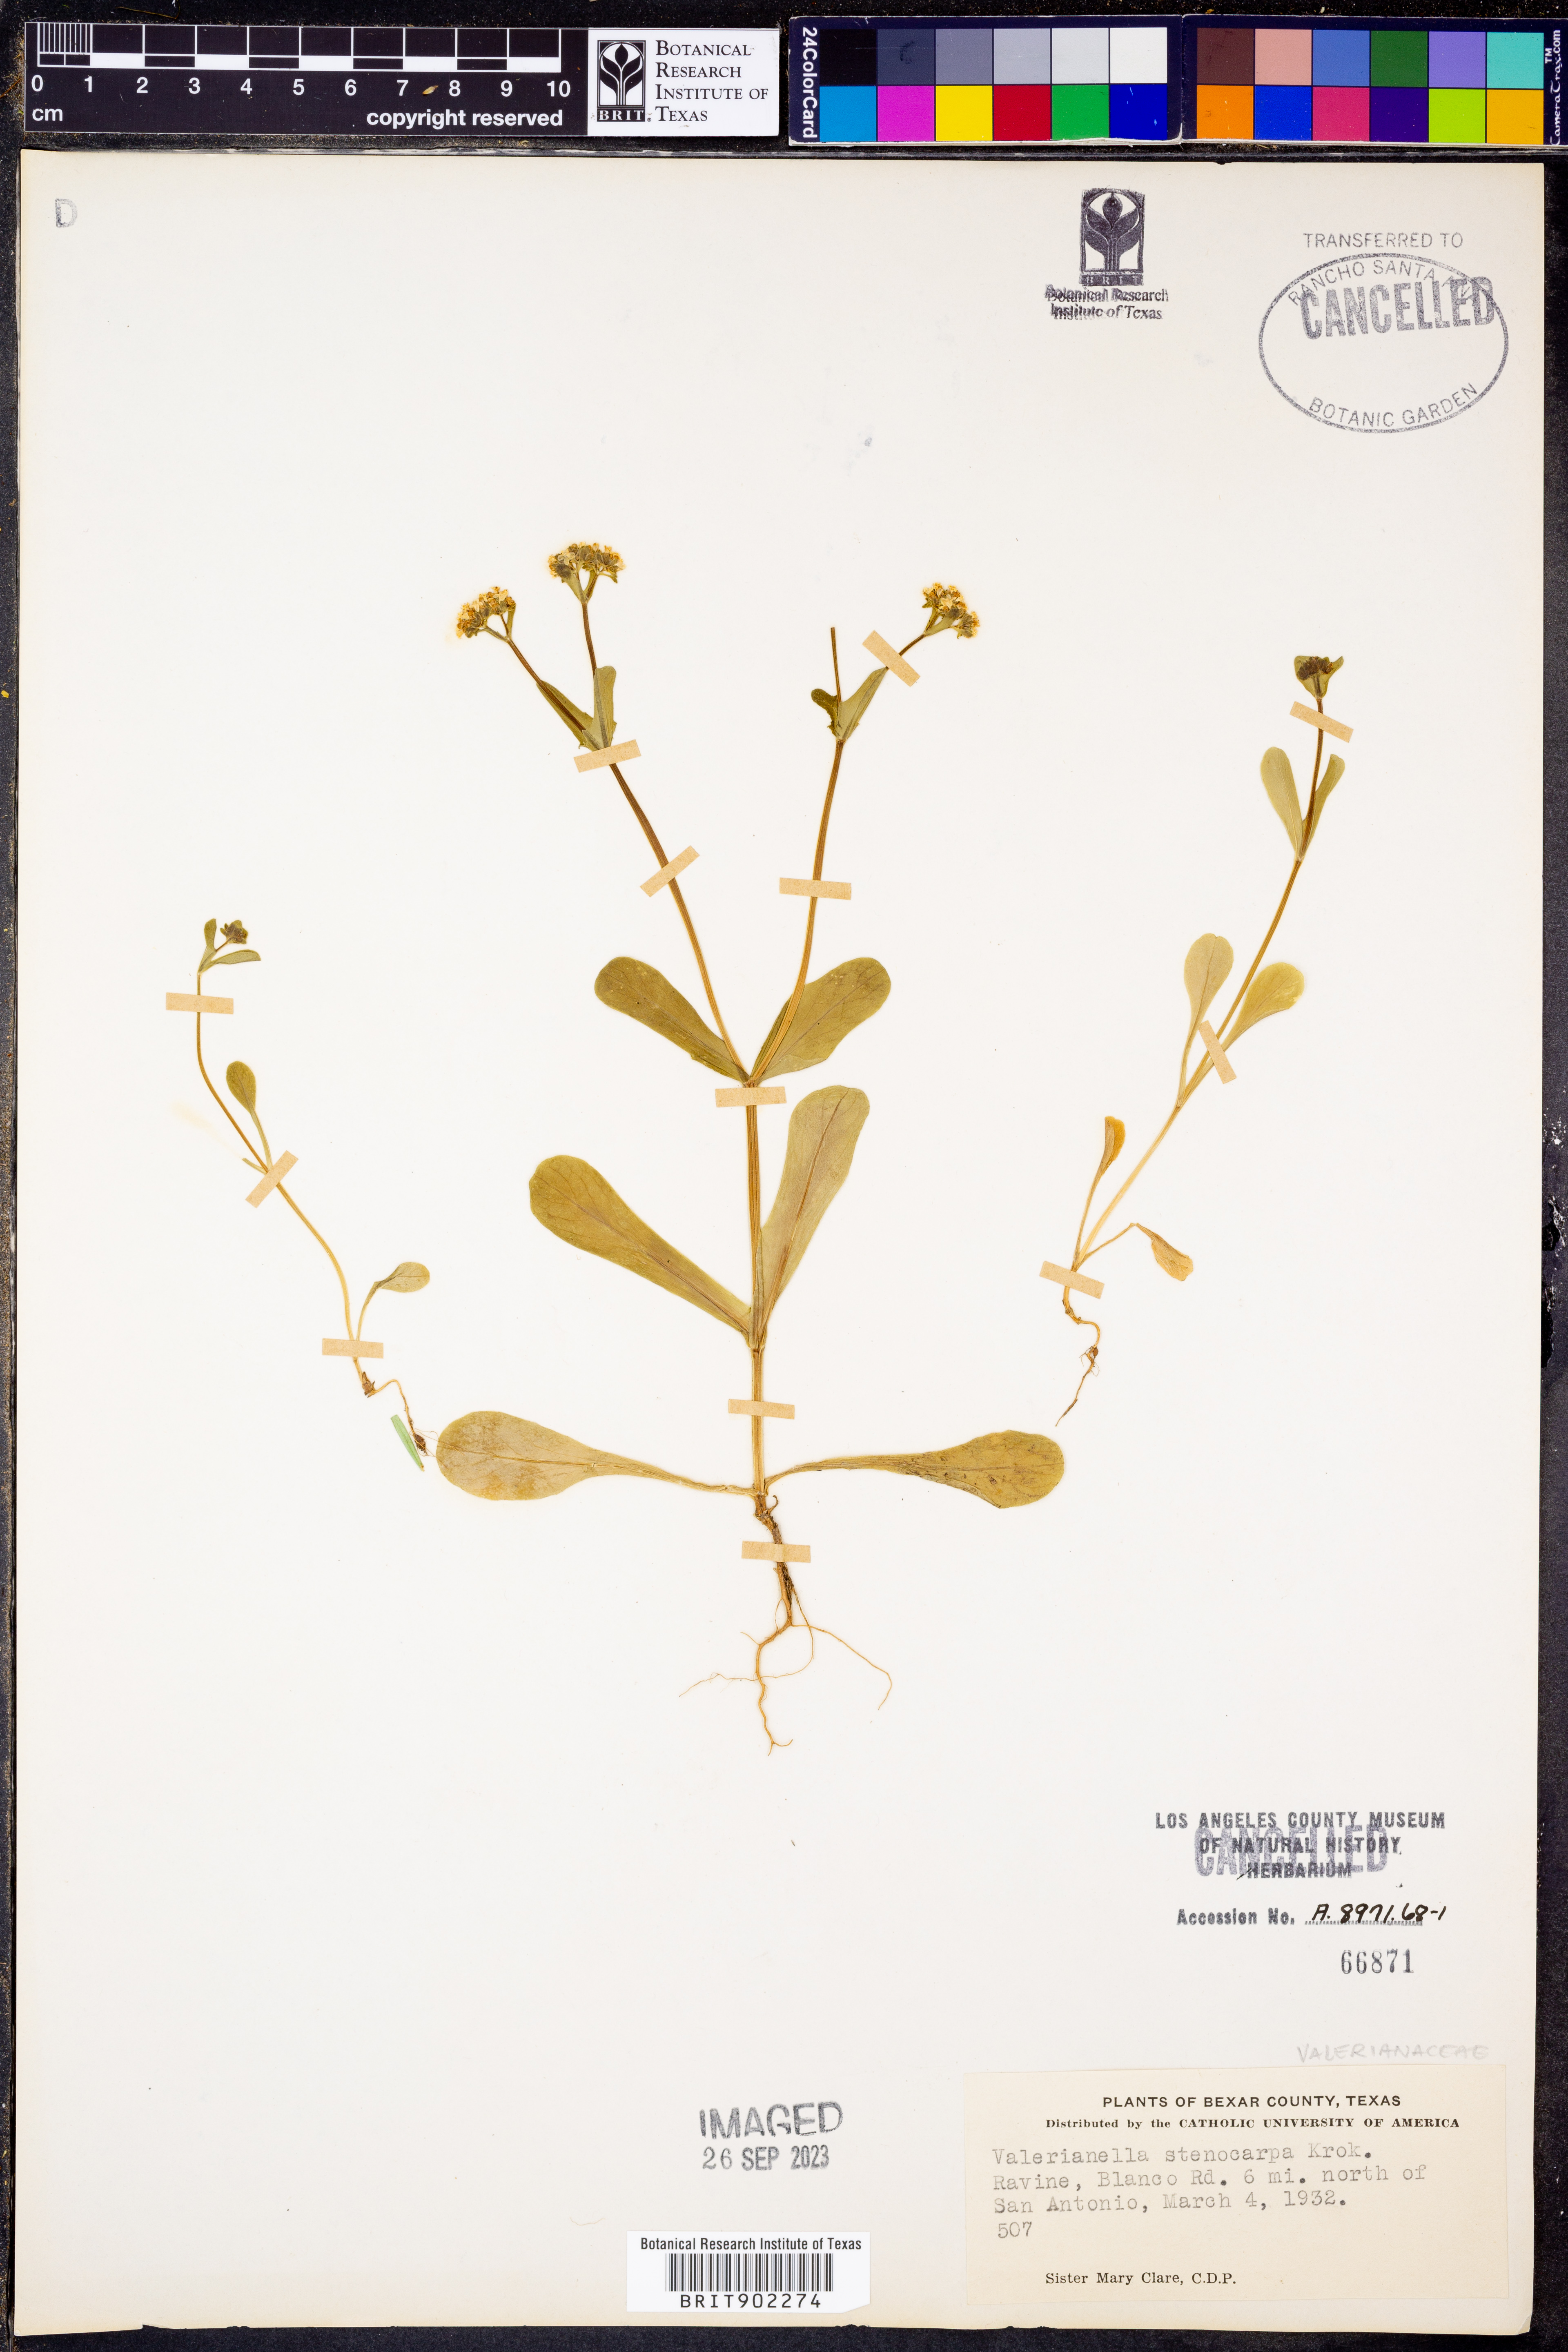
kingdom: Plantae
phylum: Tracheophyta
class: Magnoliopsida
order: Dipsacales
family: Caprifoliaceae
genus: Valerianella
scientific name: Valerianella stenocarpa
